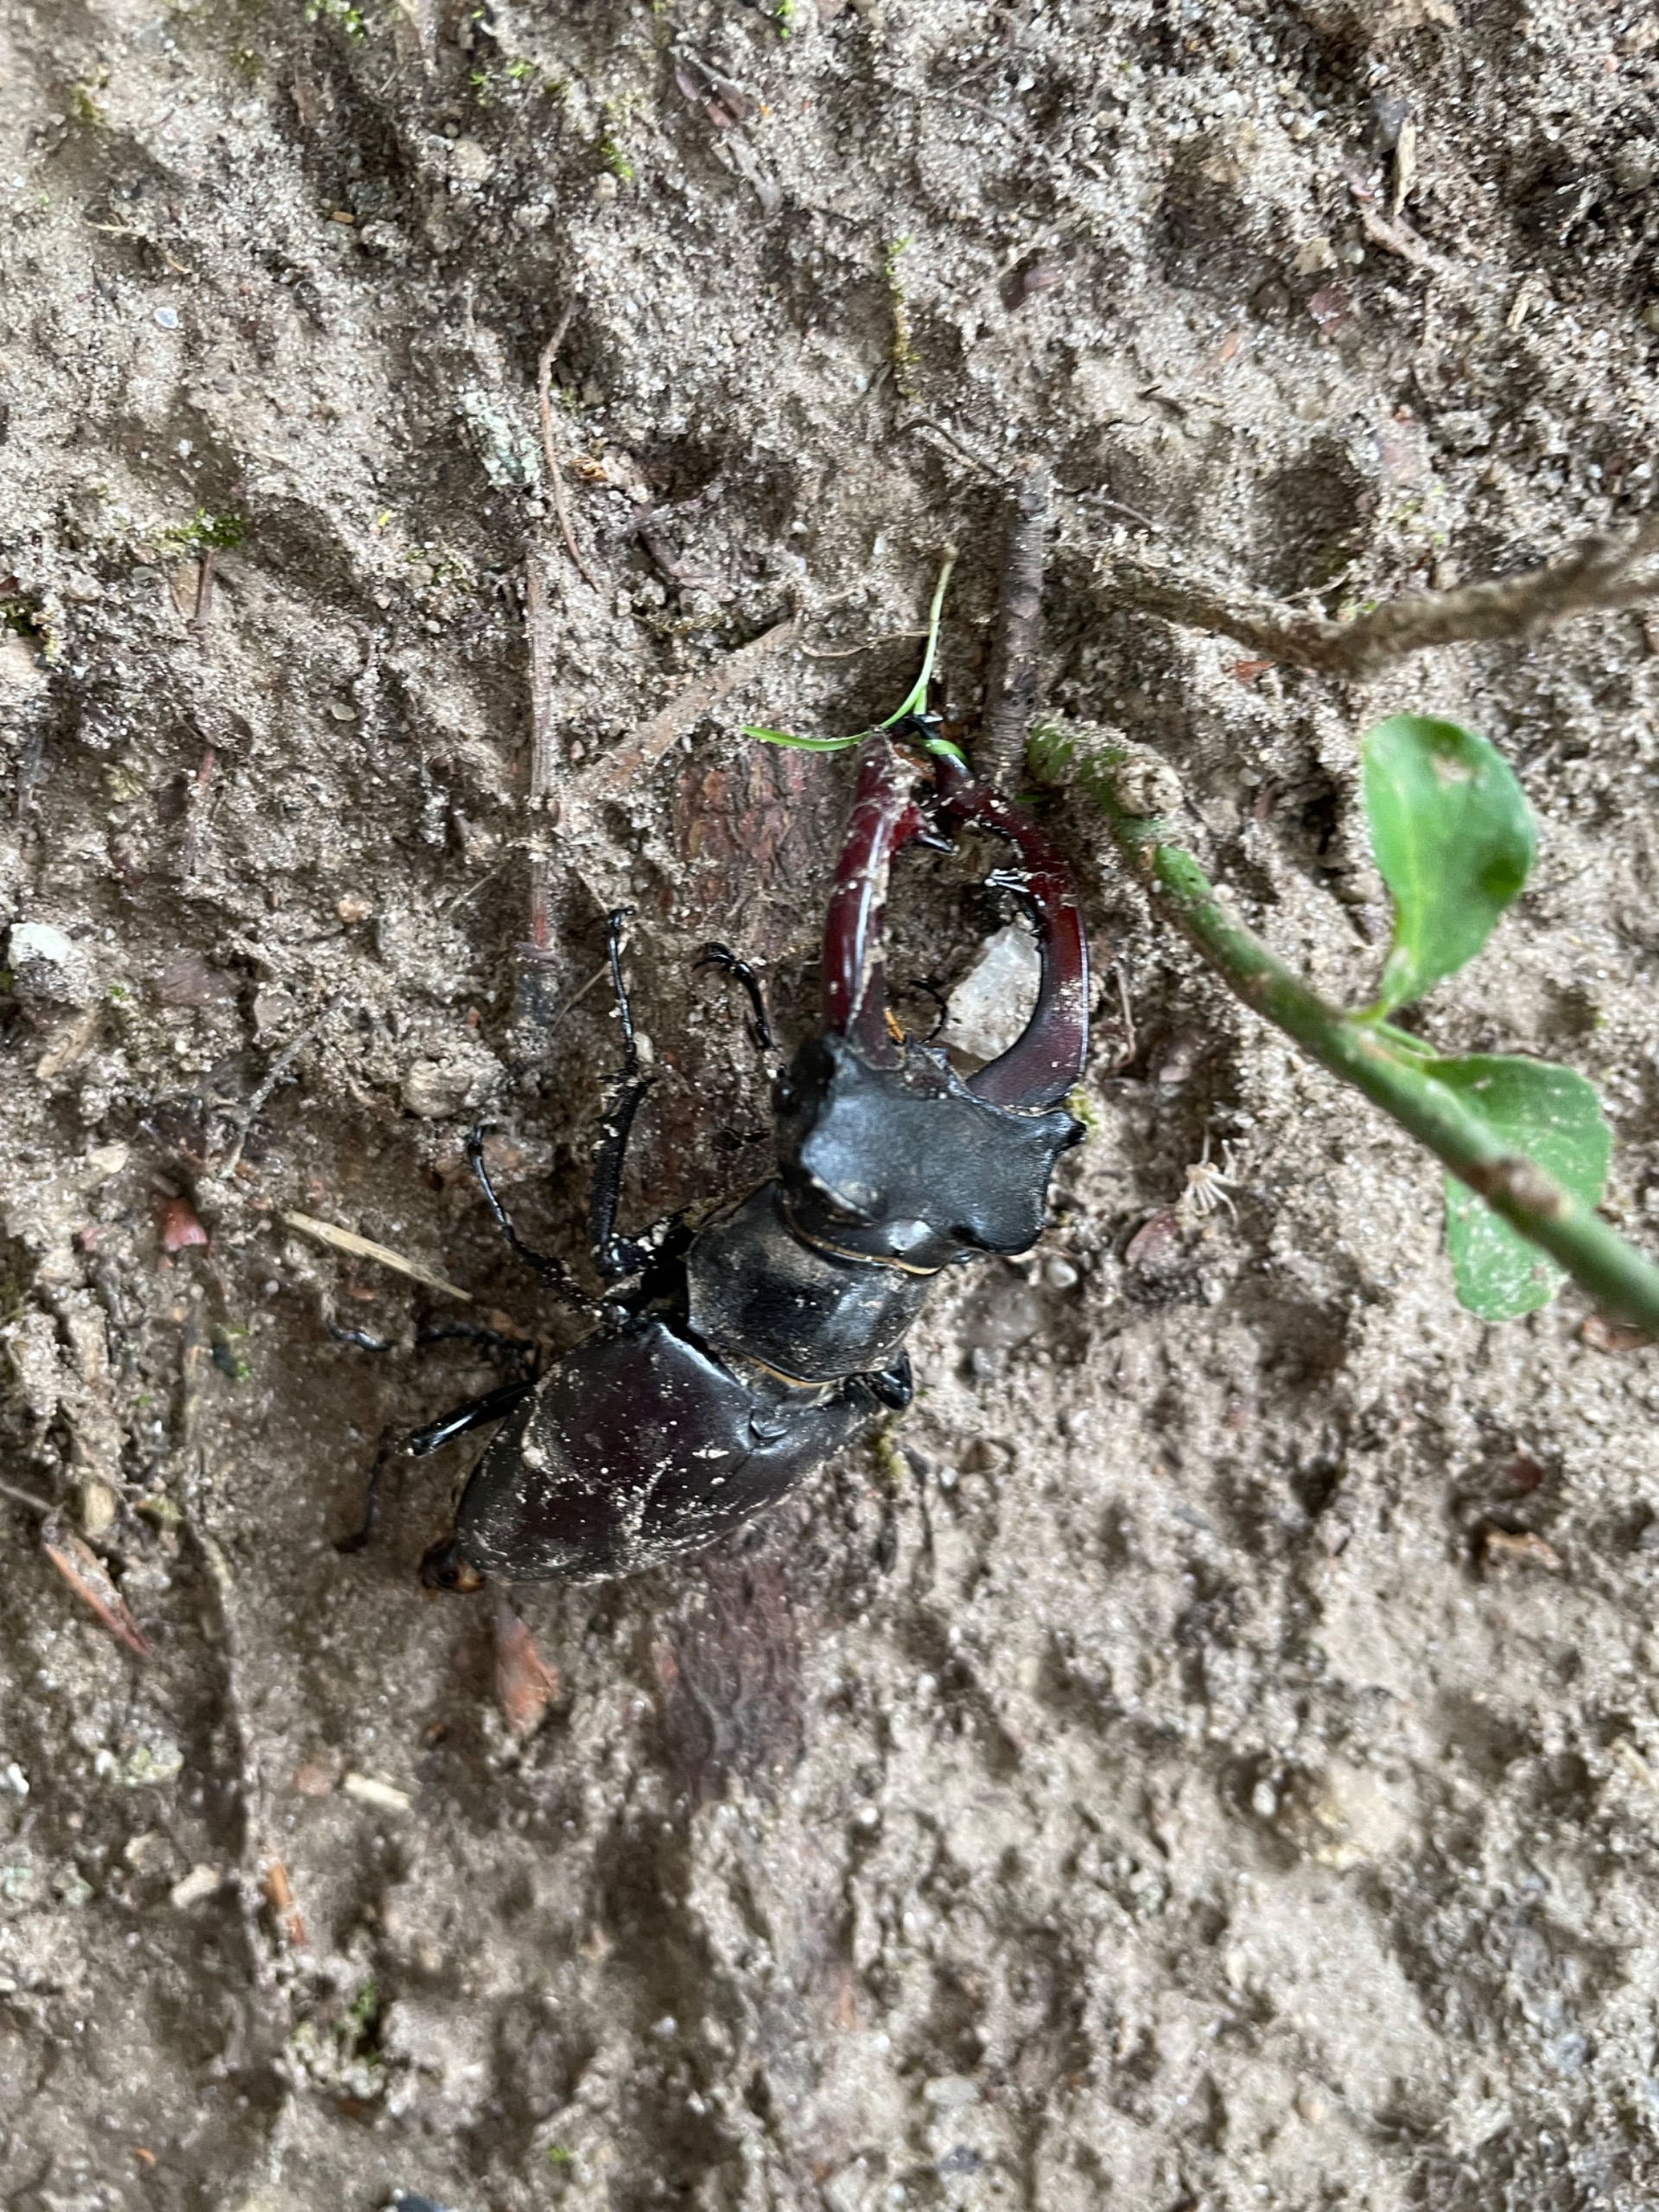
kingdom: Animalia
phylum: Arthropoda
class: Insecta
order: Coleoptera
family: Lucanidae
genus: Lucanus
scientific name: Lucanus cervus
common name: Eghjort
